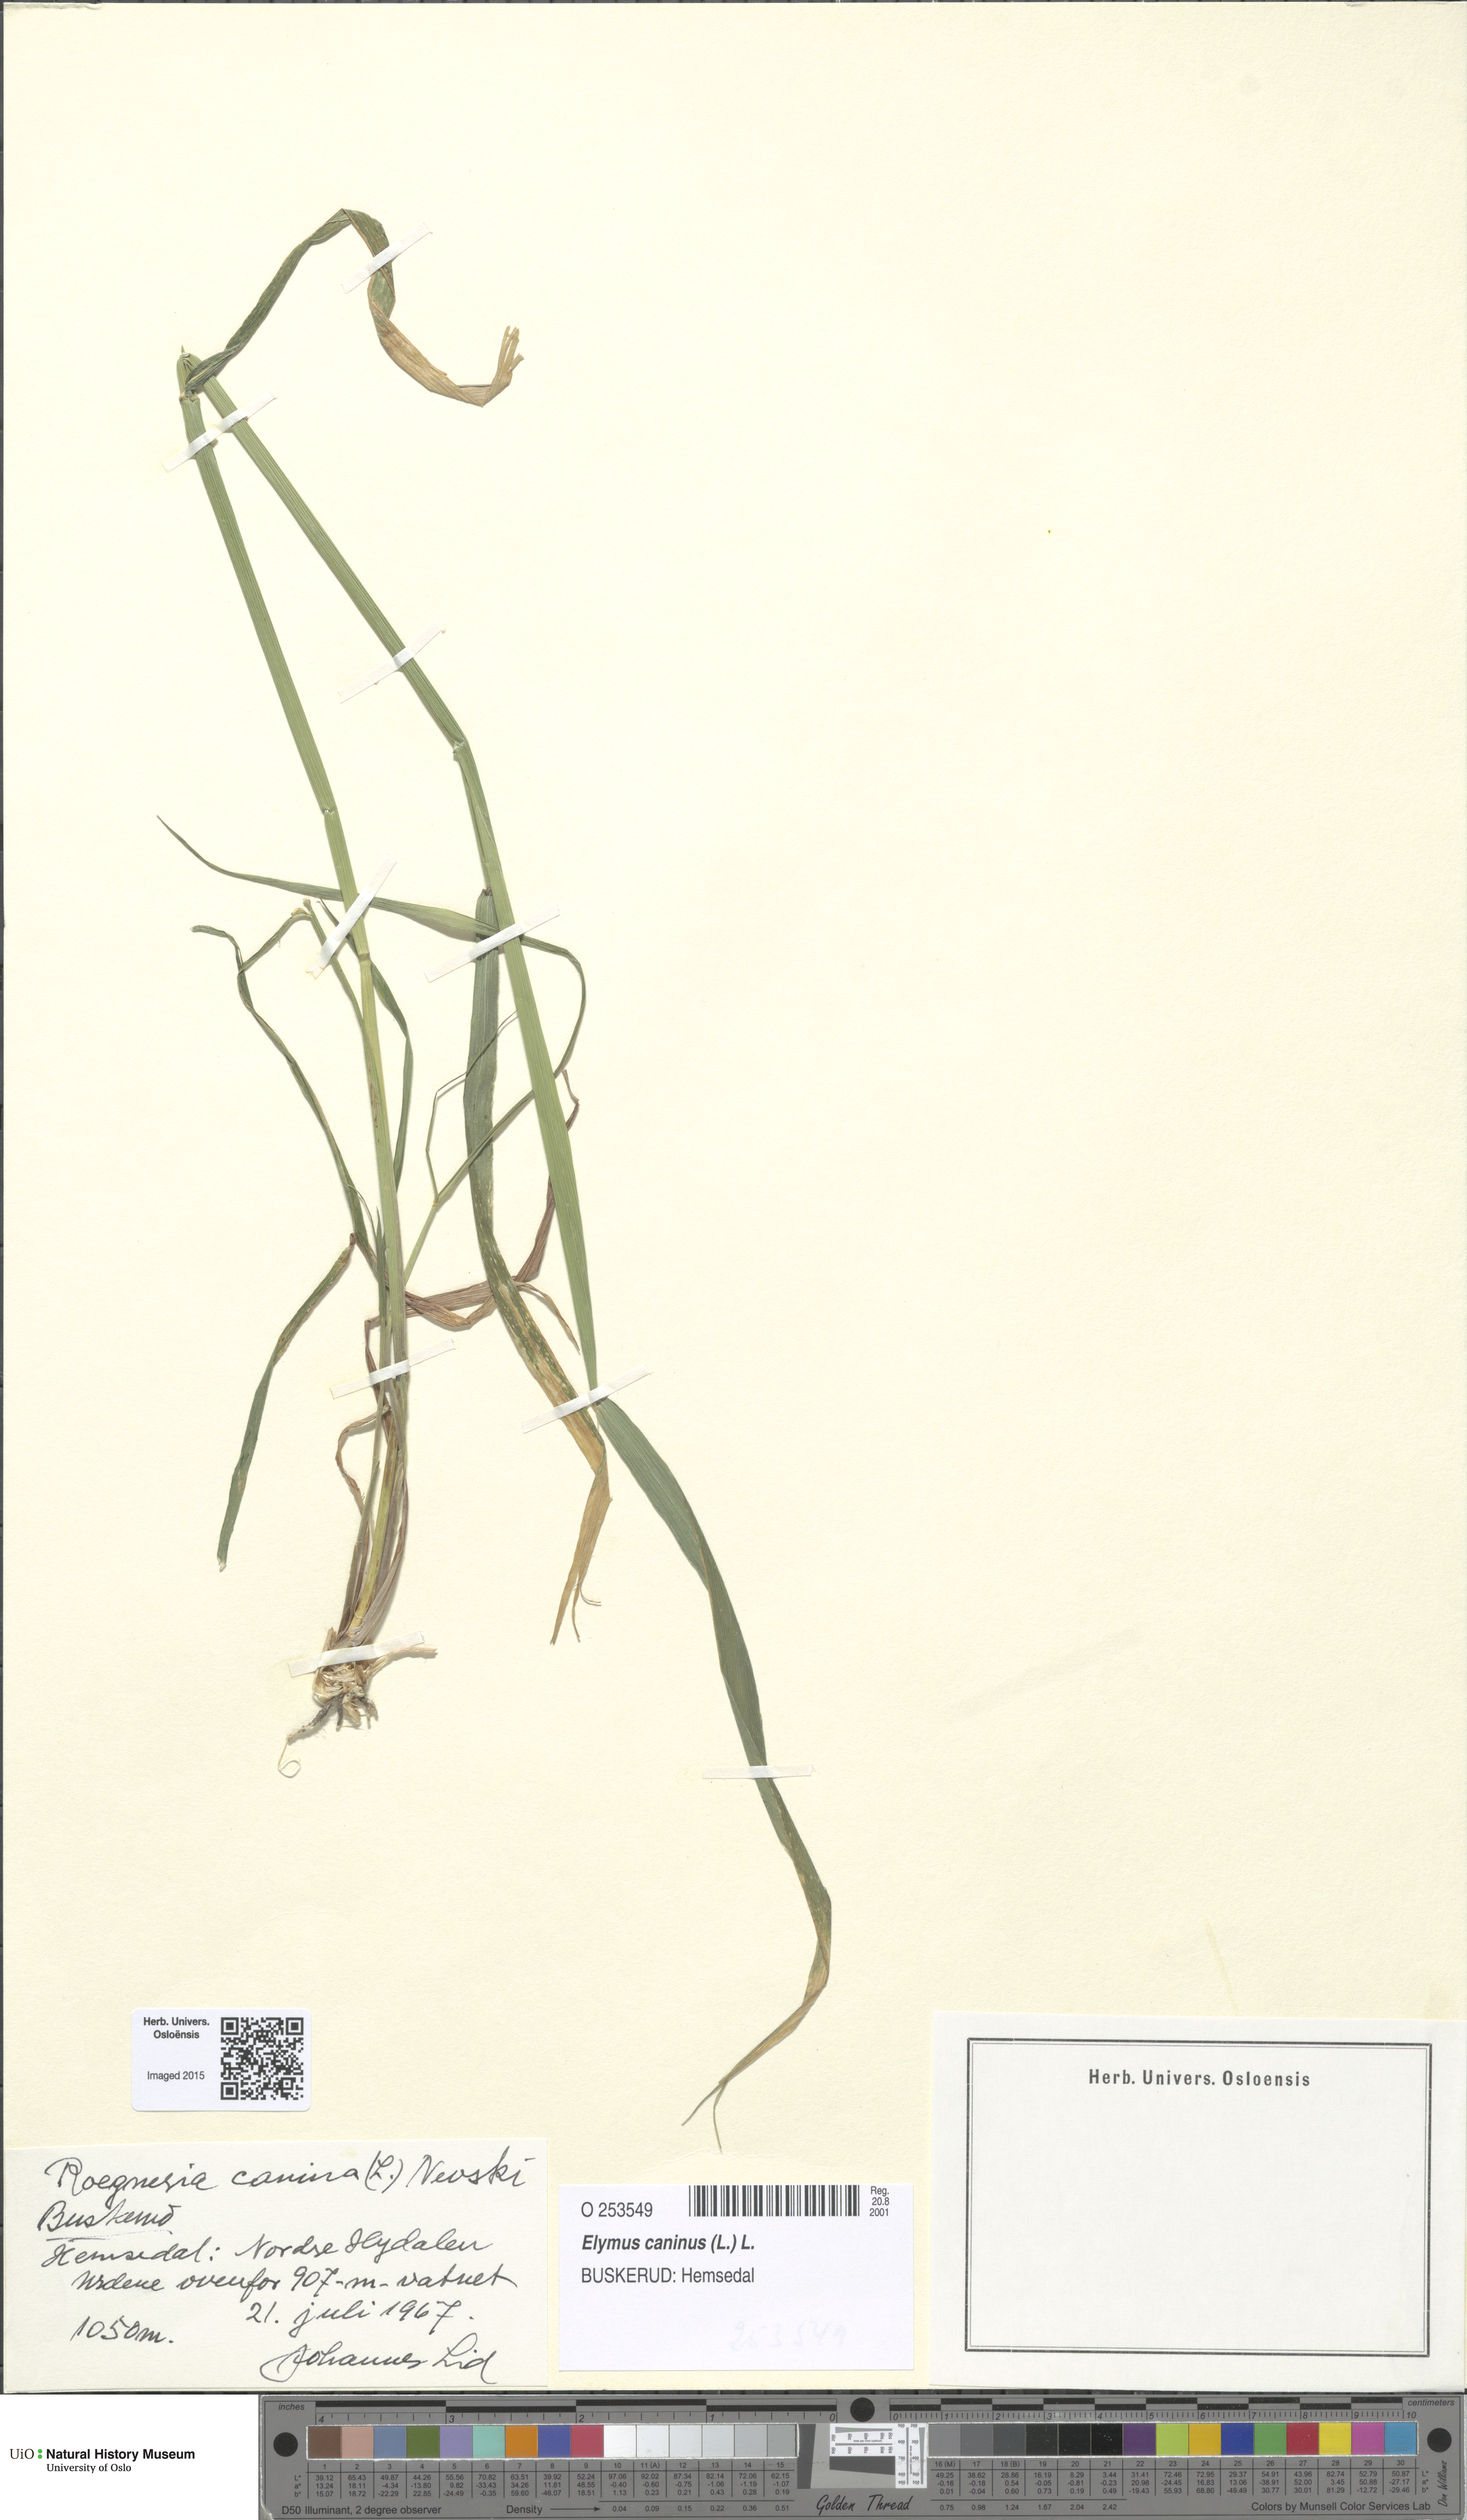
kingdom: Plantae
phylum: Tracheophyta
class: Liliopsida
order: Poales
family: Poaceae
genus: Elymus
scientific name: Elymus caninus
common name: Bearded couch
